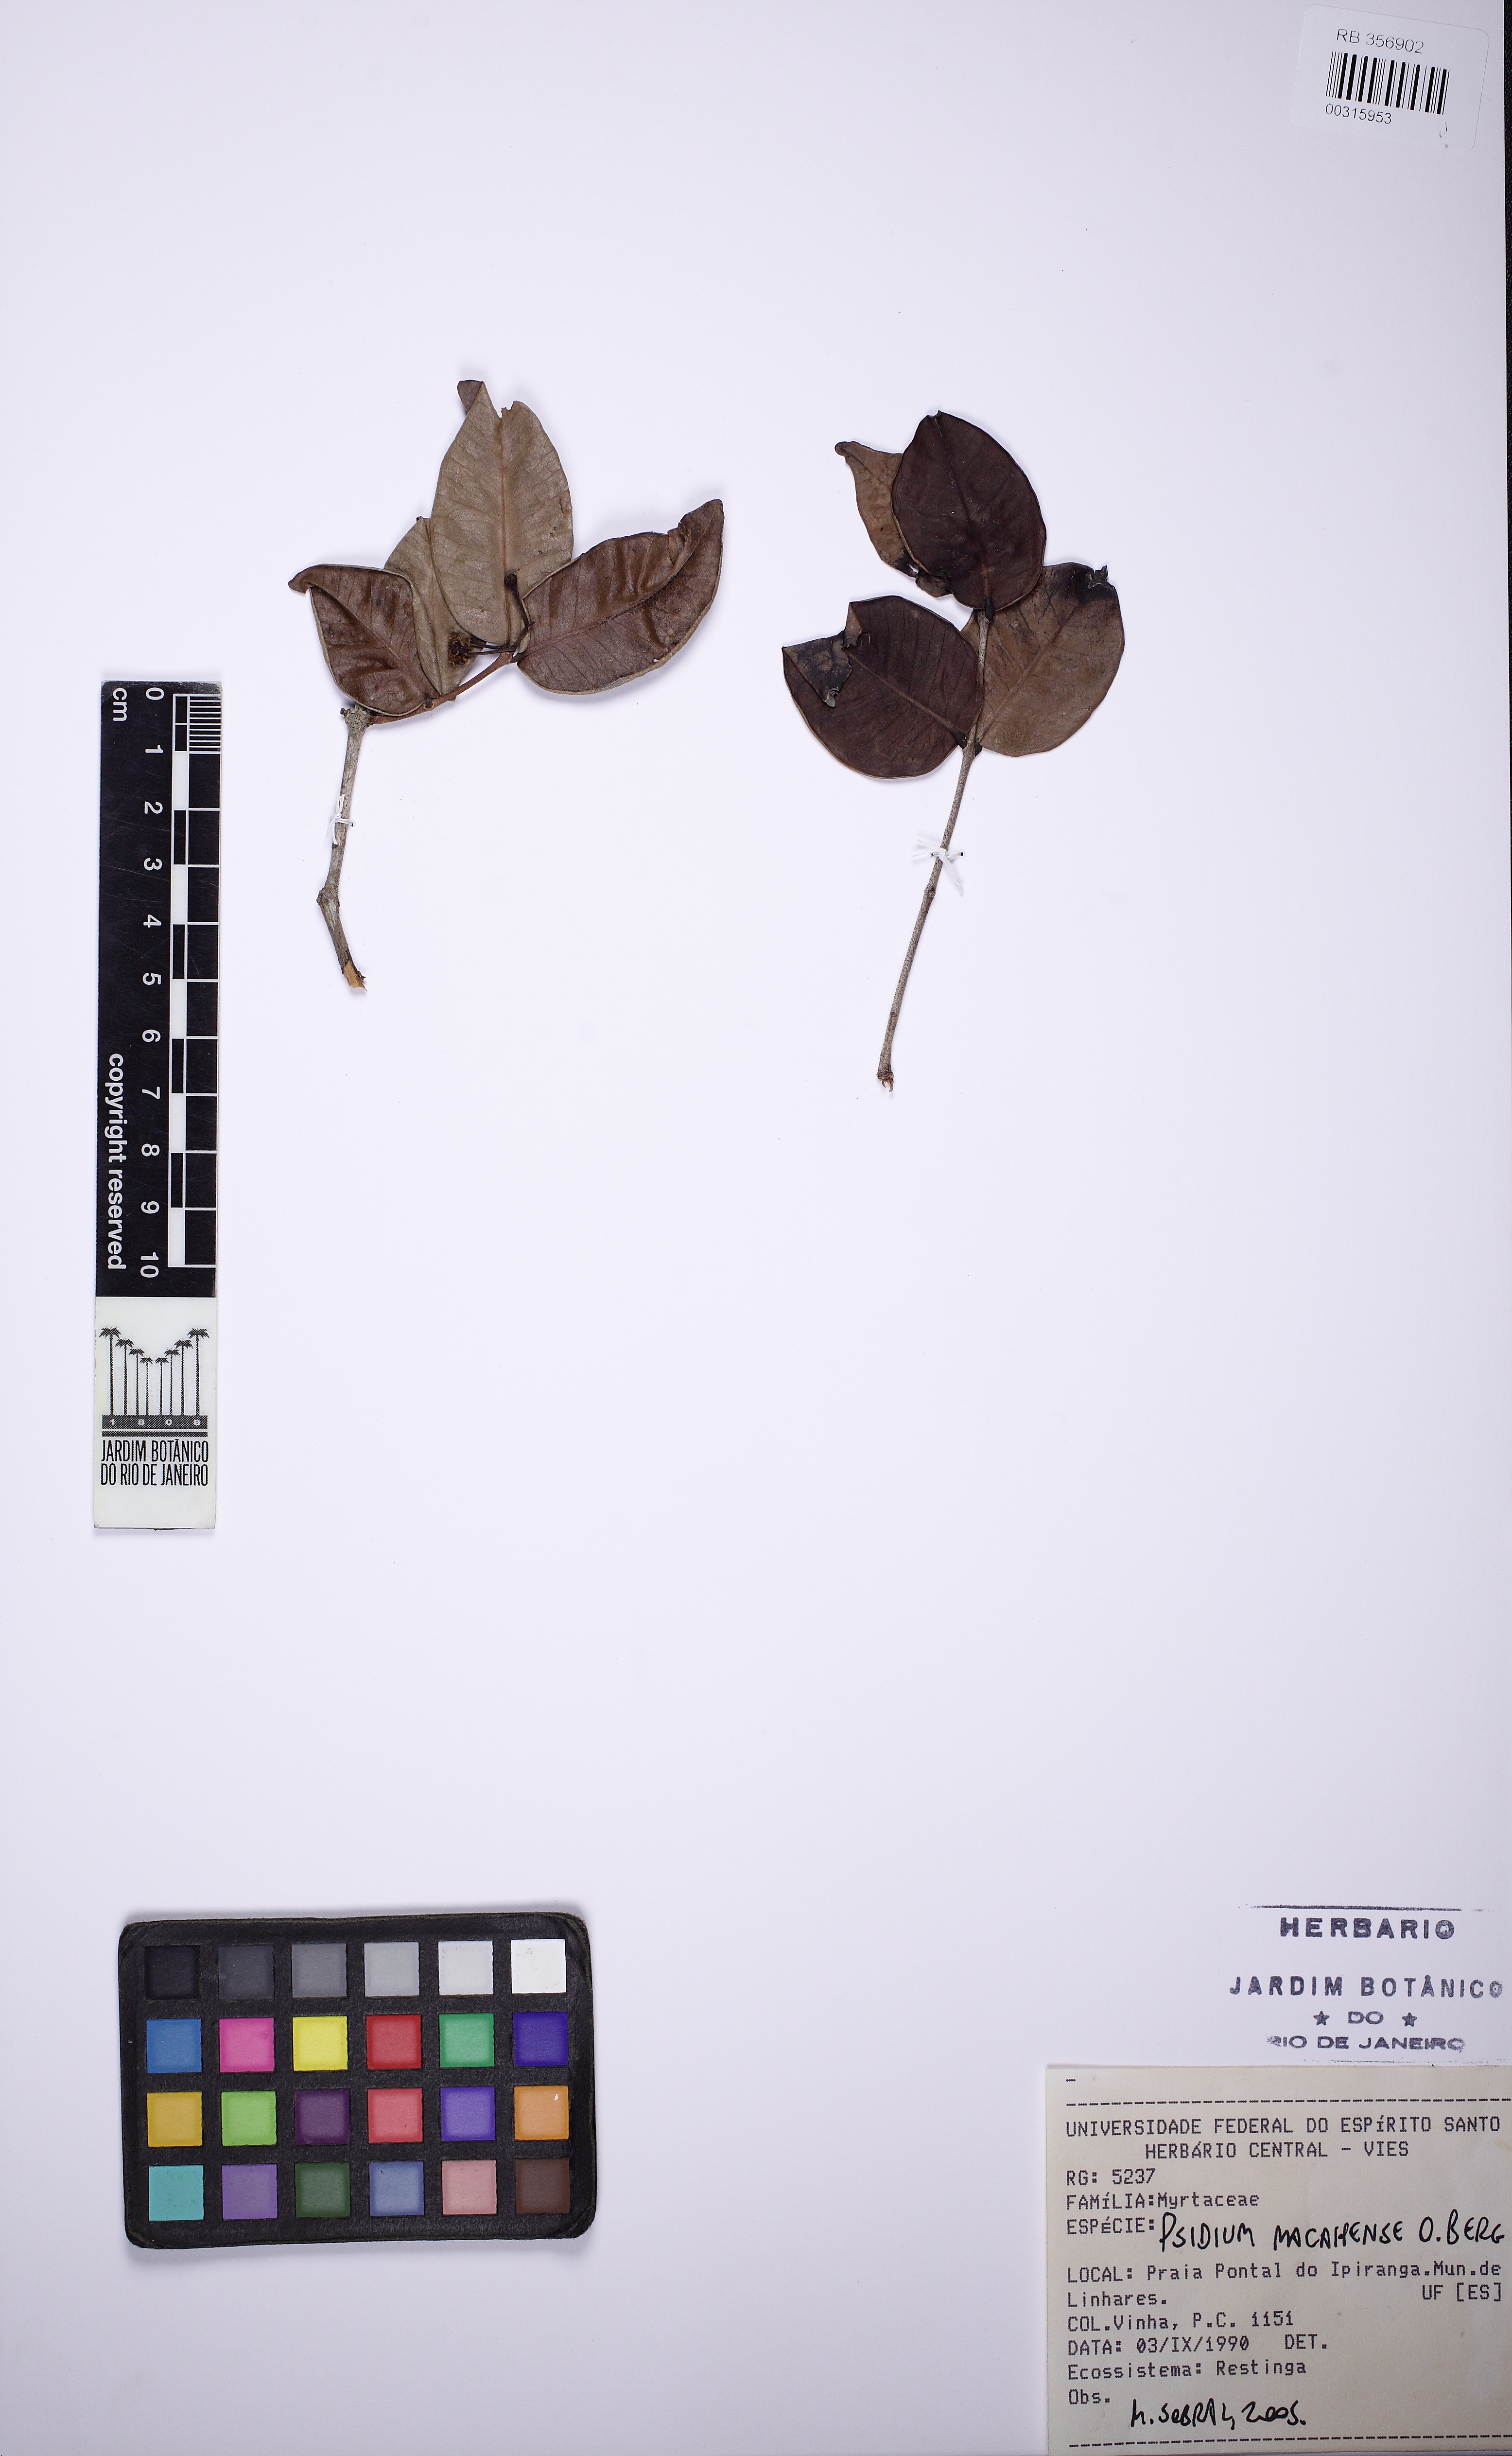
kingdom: Plantae
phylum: Tracheophyta
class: Magnoliopsida
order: Myrtales
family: Myrtaceae
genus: Psidium
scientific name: Psidium brownianum
